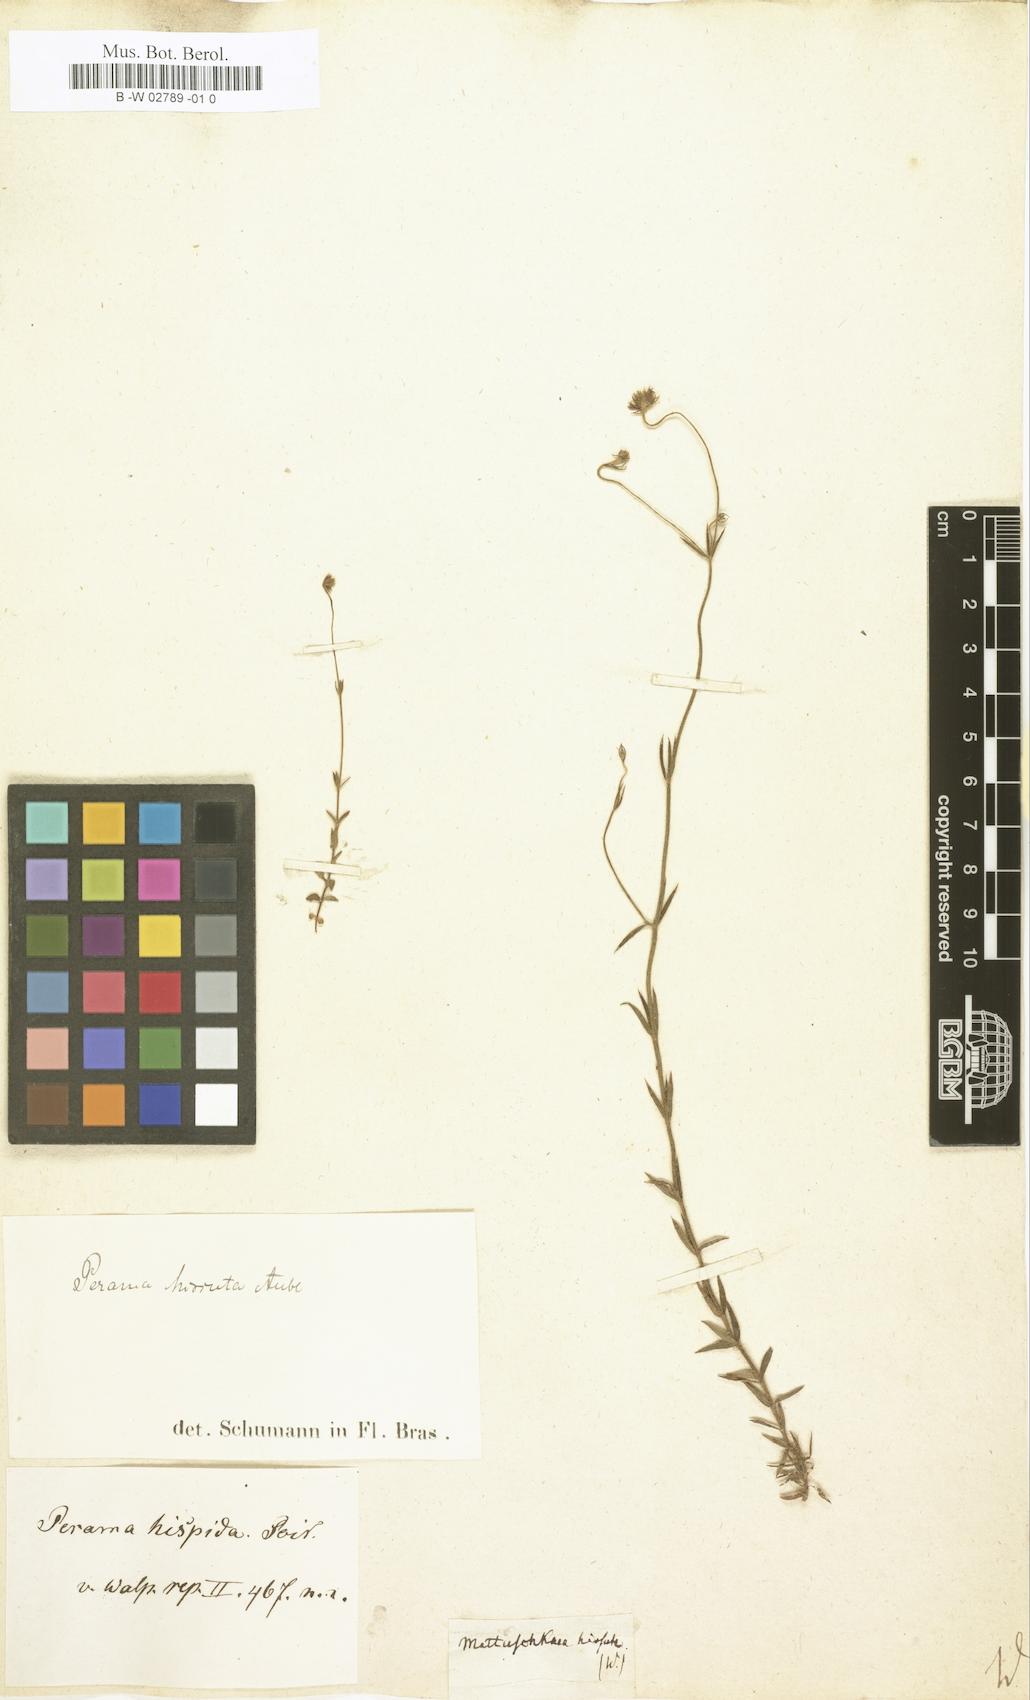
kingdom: Plantae
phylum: Tracheophyta
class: Magnoliopsida
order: Gentianales
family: Rubiaceae
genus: Perama
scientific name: Perama hirsuta
